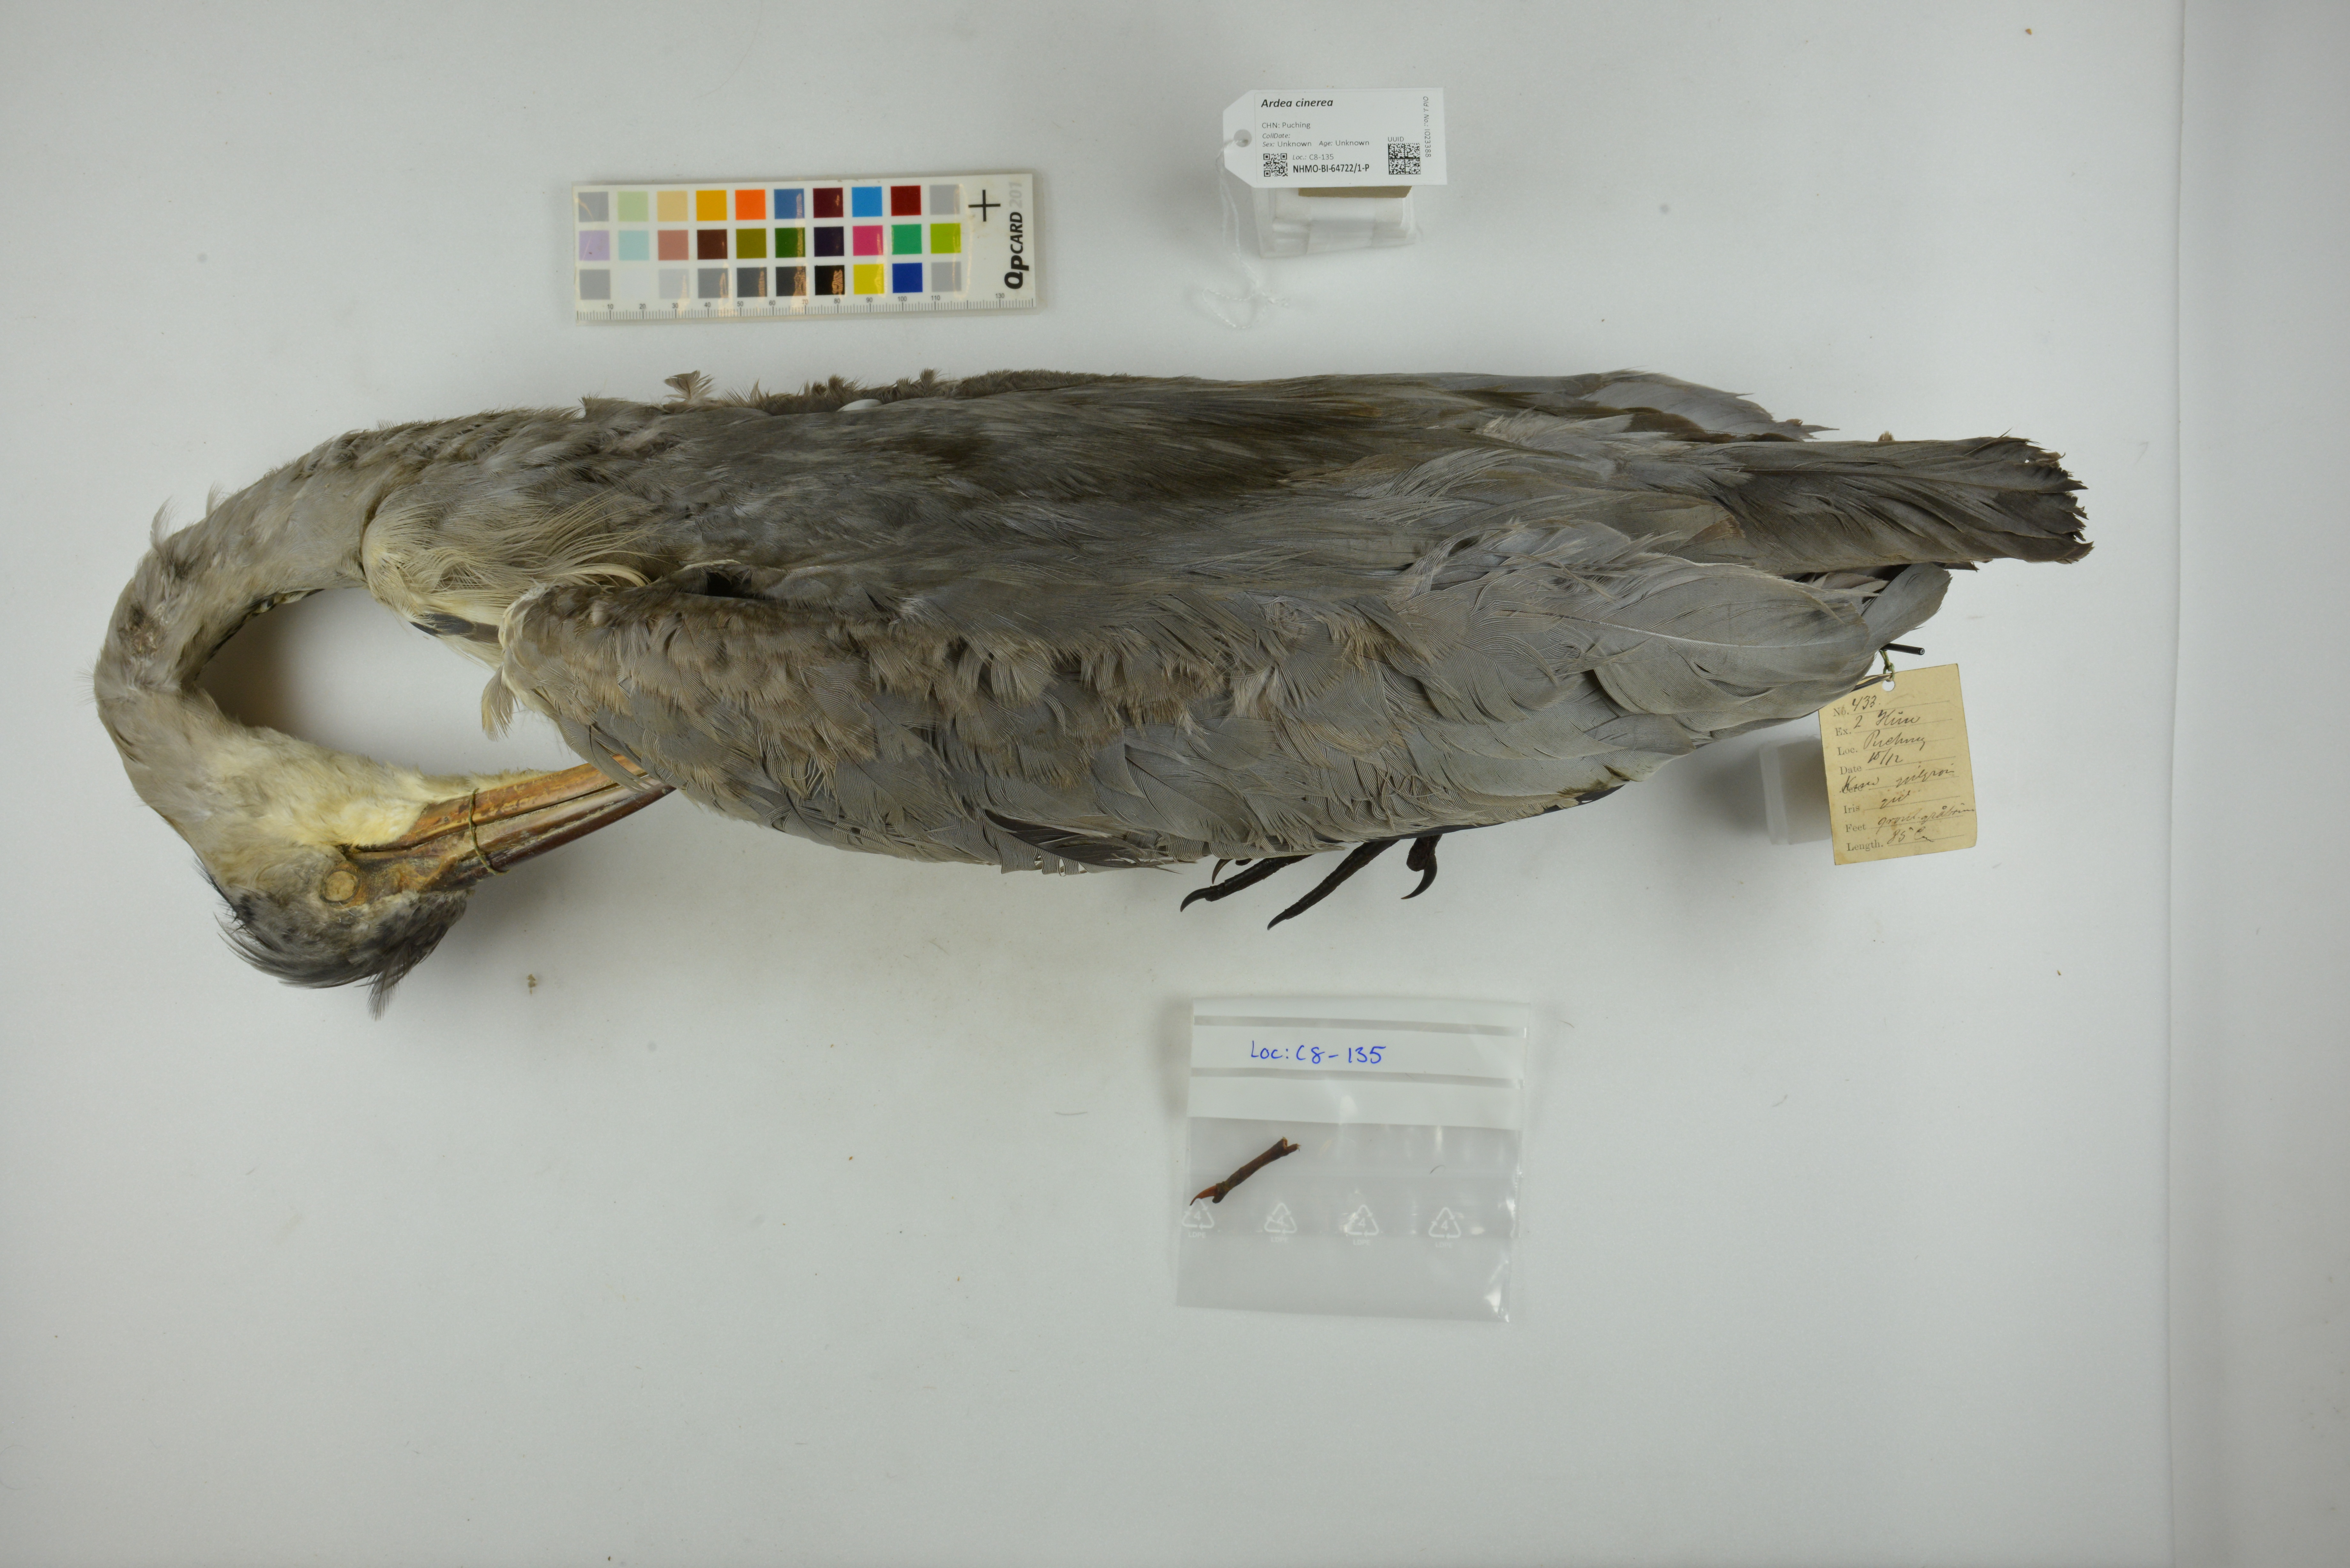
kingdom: Animalia
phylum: Chordata
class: Aves
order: Pelecaniformes
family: Ardeidae
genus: Ardea
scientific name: Ardea cinerea
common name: Grey heron
